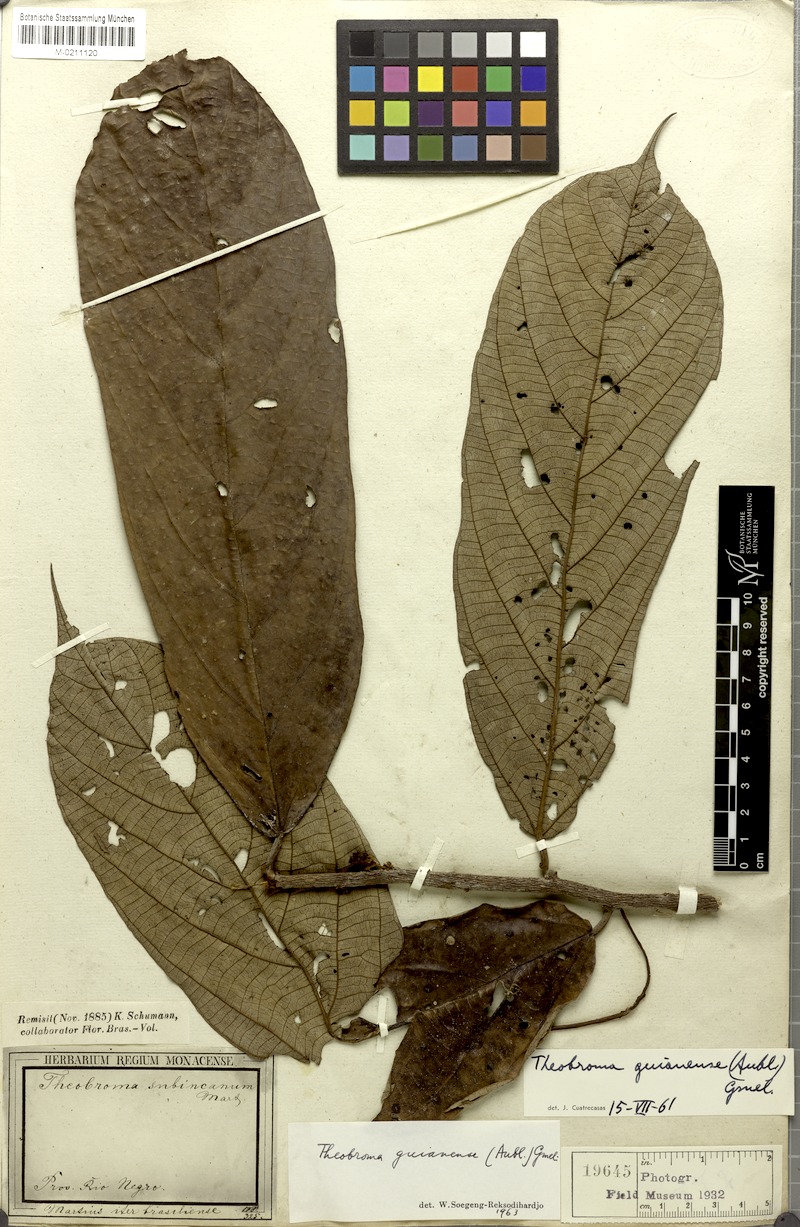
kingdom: Plantae
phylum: Tracheophyta
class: Magnoliopsida
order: Malvales
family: Malvaceae
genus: Theobroma
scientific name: Theobroma subincanum
